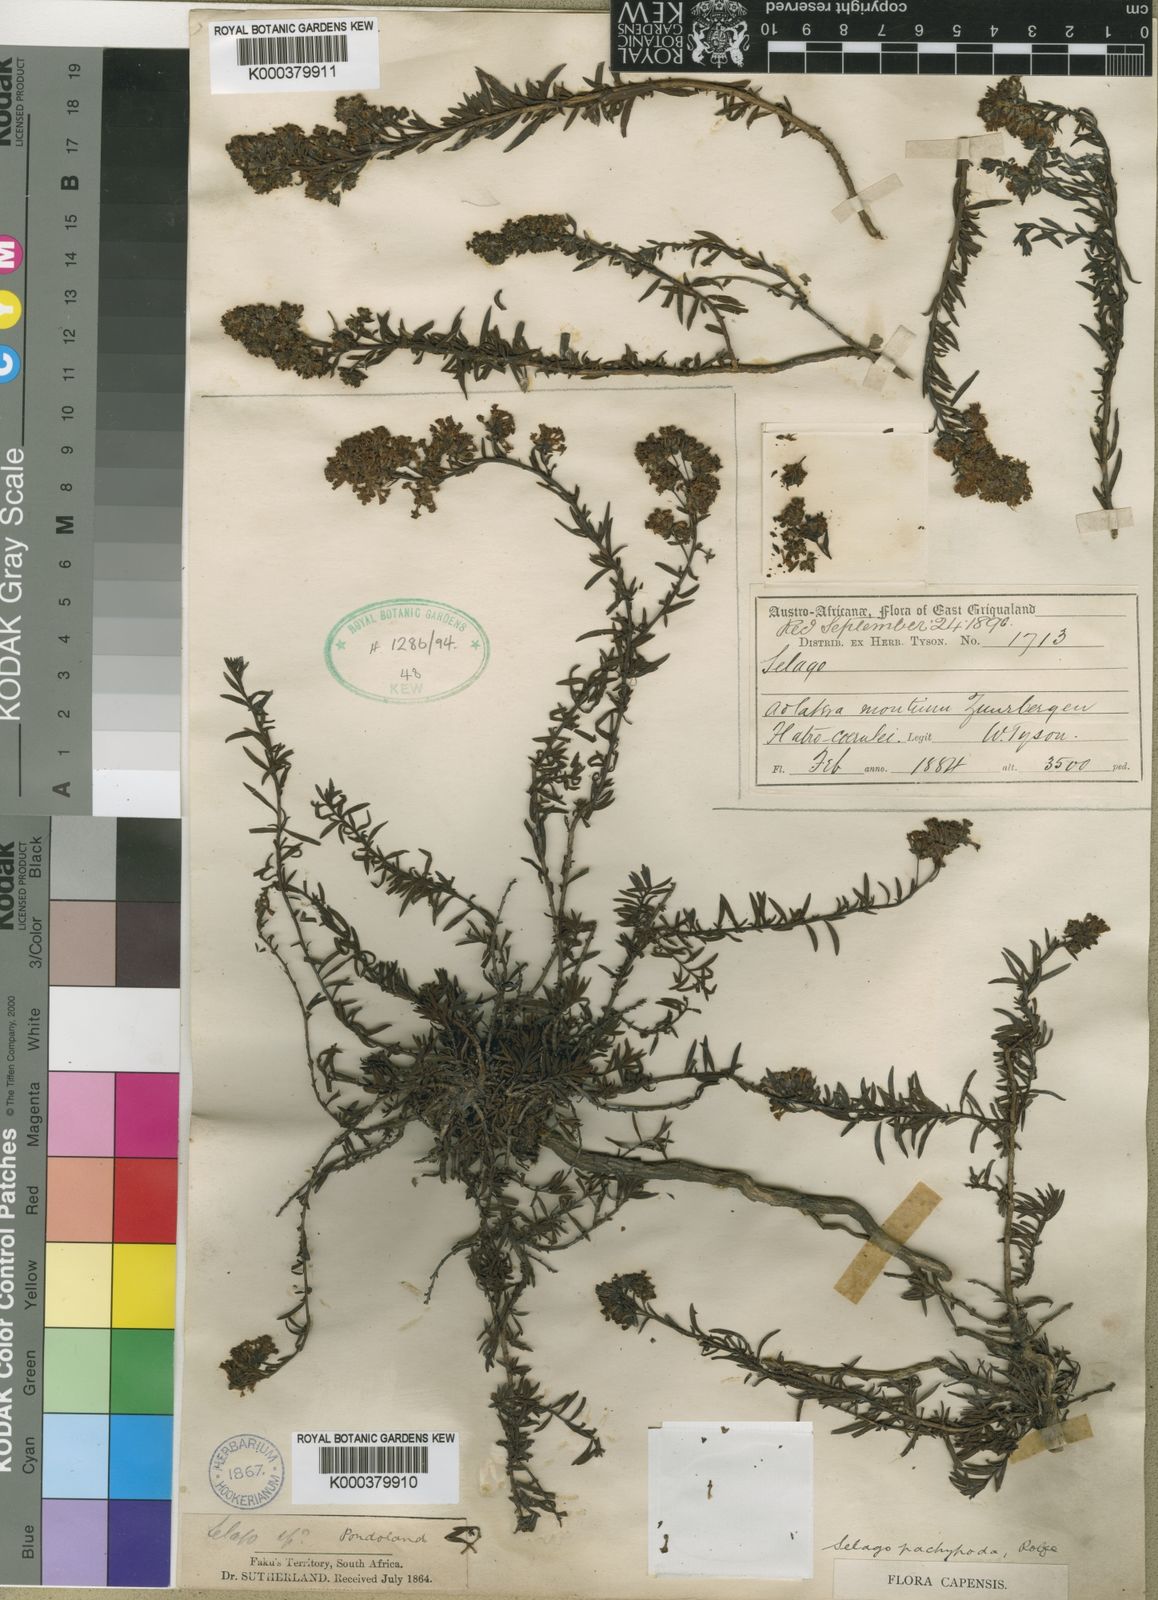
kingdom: Plantae
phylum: Tracheophyta
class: Magnoliopsida
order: Lamiales
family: Scrophulariaceae
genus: Selago
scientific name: Selago pachypoda
